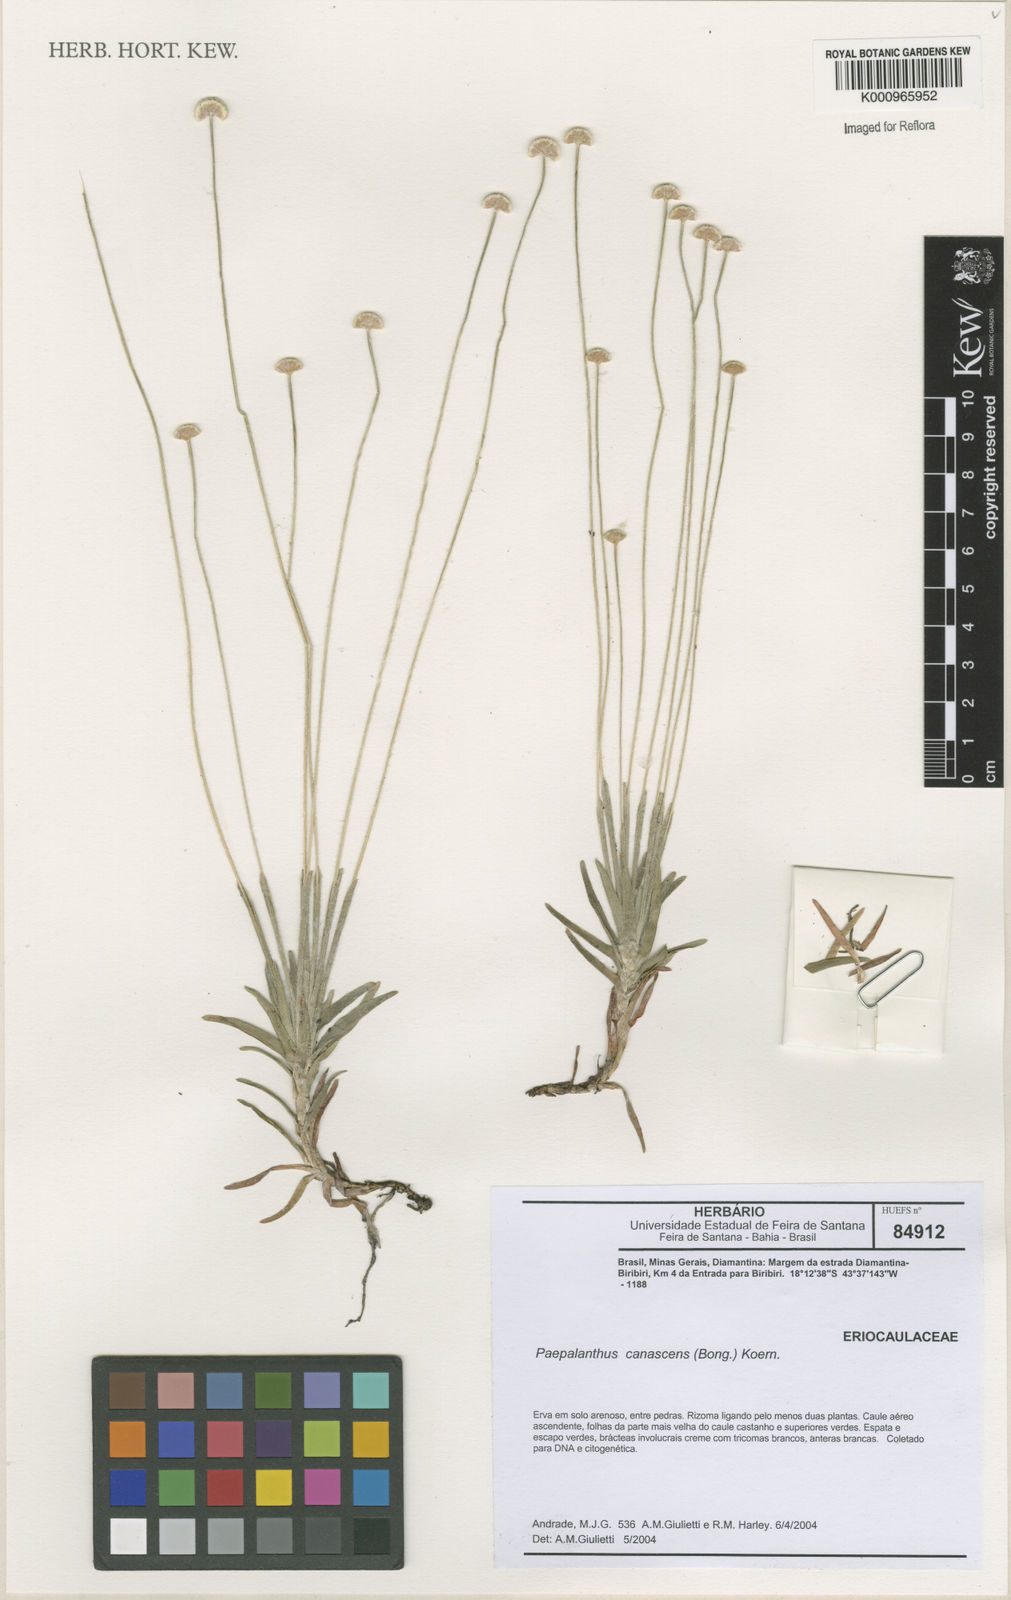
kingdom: Plantae
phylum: Tracheophyta
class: Liliopsida
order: Poales
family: Eriocaulaceae
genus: Paepalanthus
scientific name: Paepalanthus
